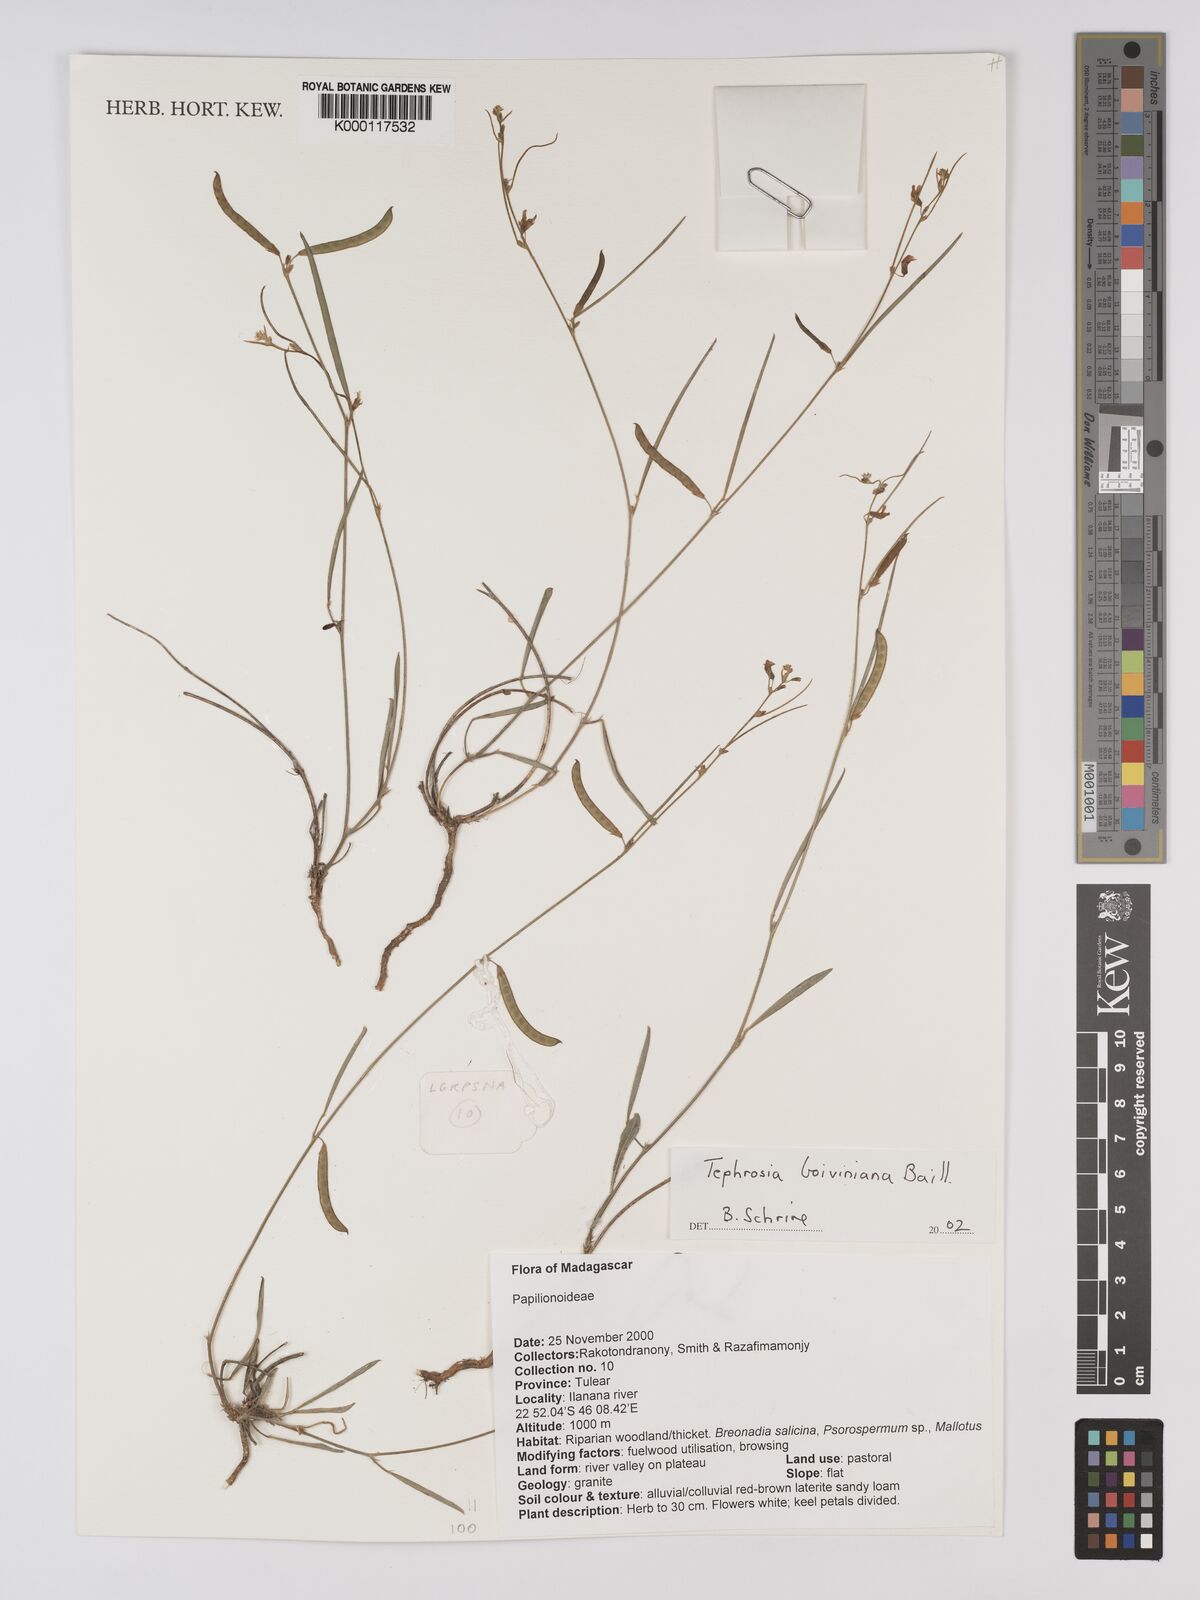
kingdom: Plantae
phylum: Tracheophyta
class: Magnoliopsida
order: Fabales
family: Fabaceae
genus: Tephrosia
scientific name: Tephrosia boiviniana
